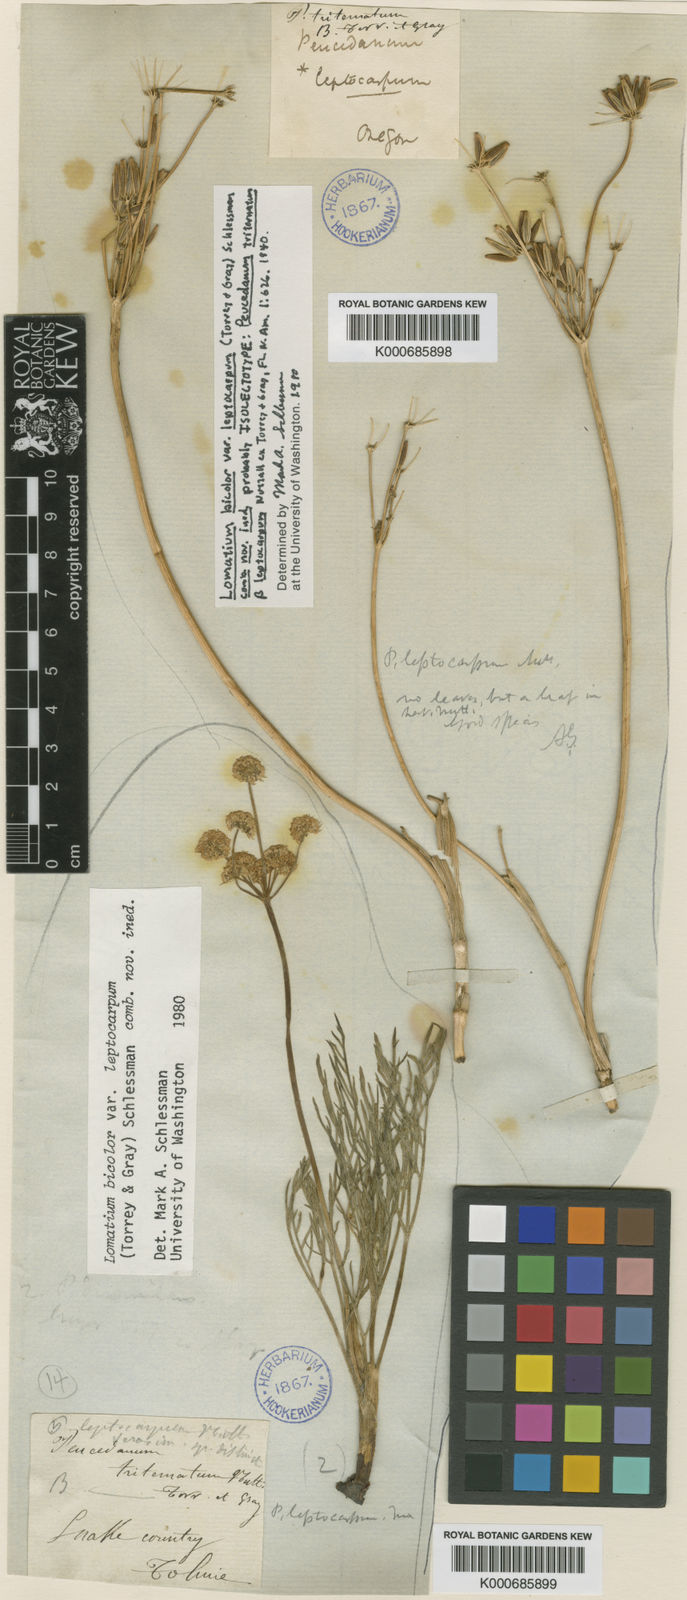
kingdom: Plantae
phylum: Tracheophyta
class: Magnoliopsida
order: Apiales
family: Apiaceae
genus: Lomatium
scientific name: Lomatium bicolor
